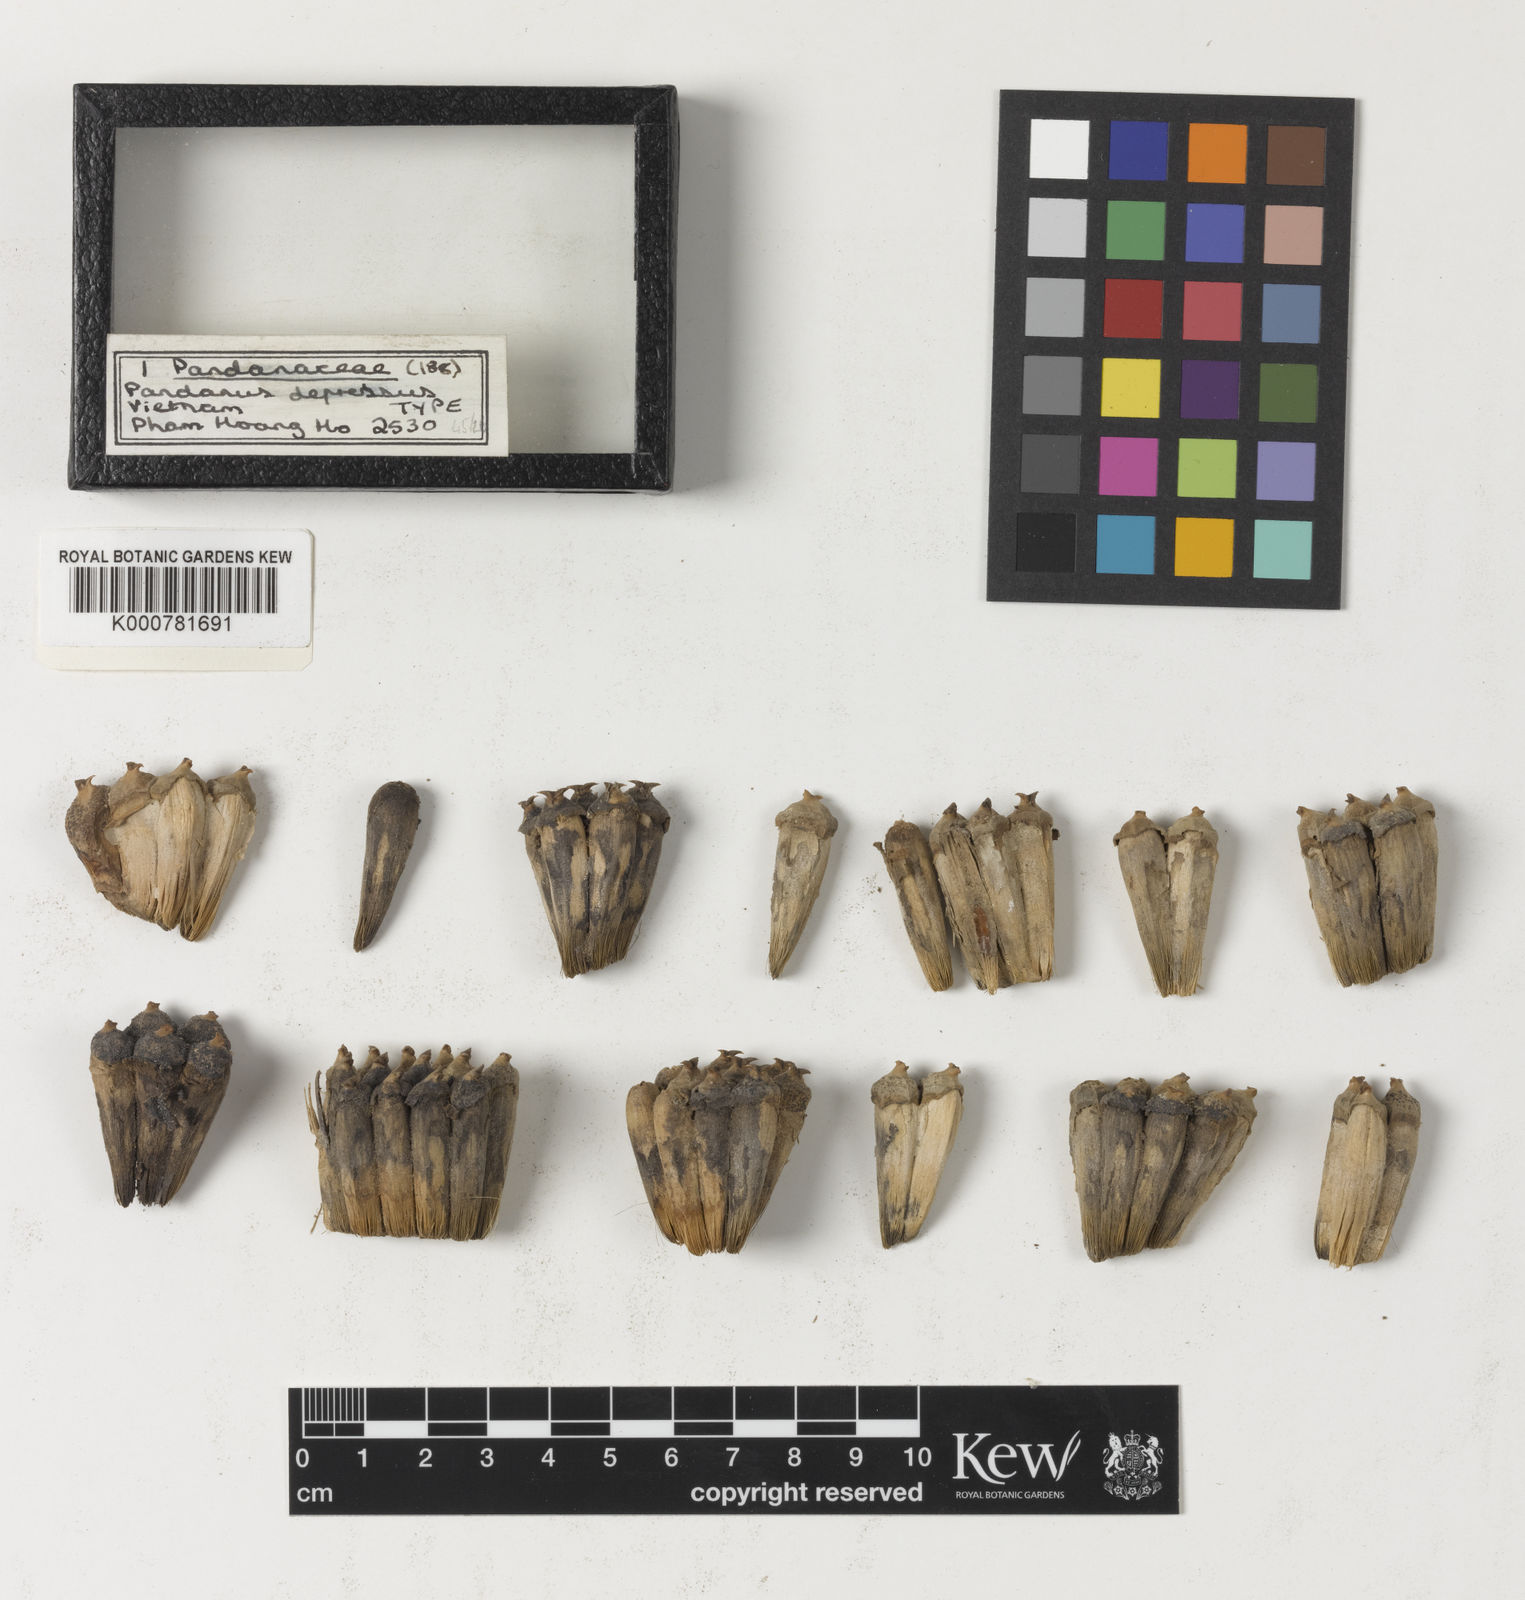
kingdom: Plantae
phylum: Tracheophyta
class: Liliopsida
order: Pandanales
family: Pandanaceae
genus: Pandanus
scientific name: Pandanus horizontalis
